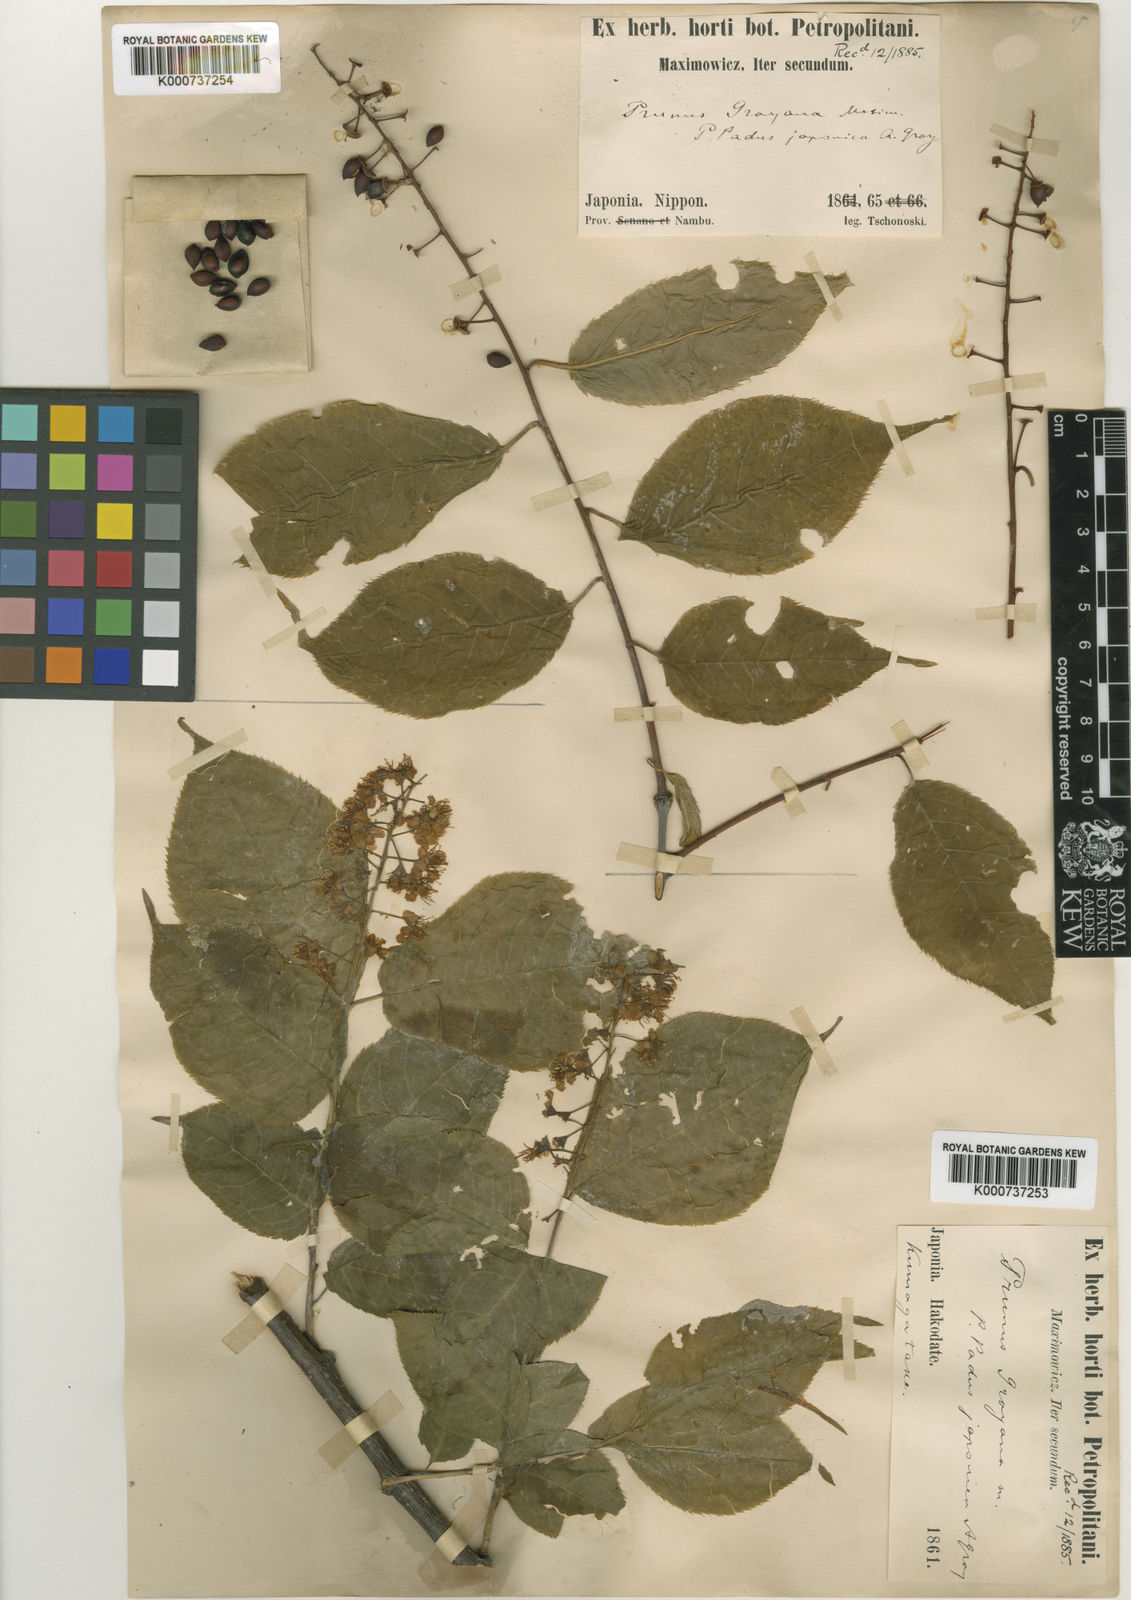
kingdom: Plantae
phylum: Tracheophyta
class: Magnoliopsida
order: Rosales
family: Rosaceae
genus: Prunus
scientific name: Prunus grayana
